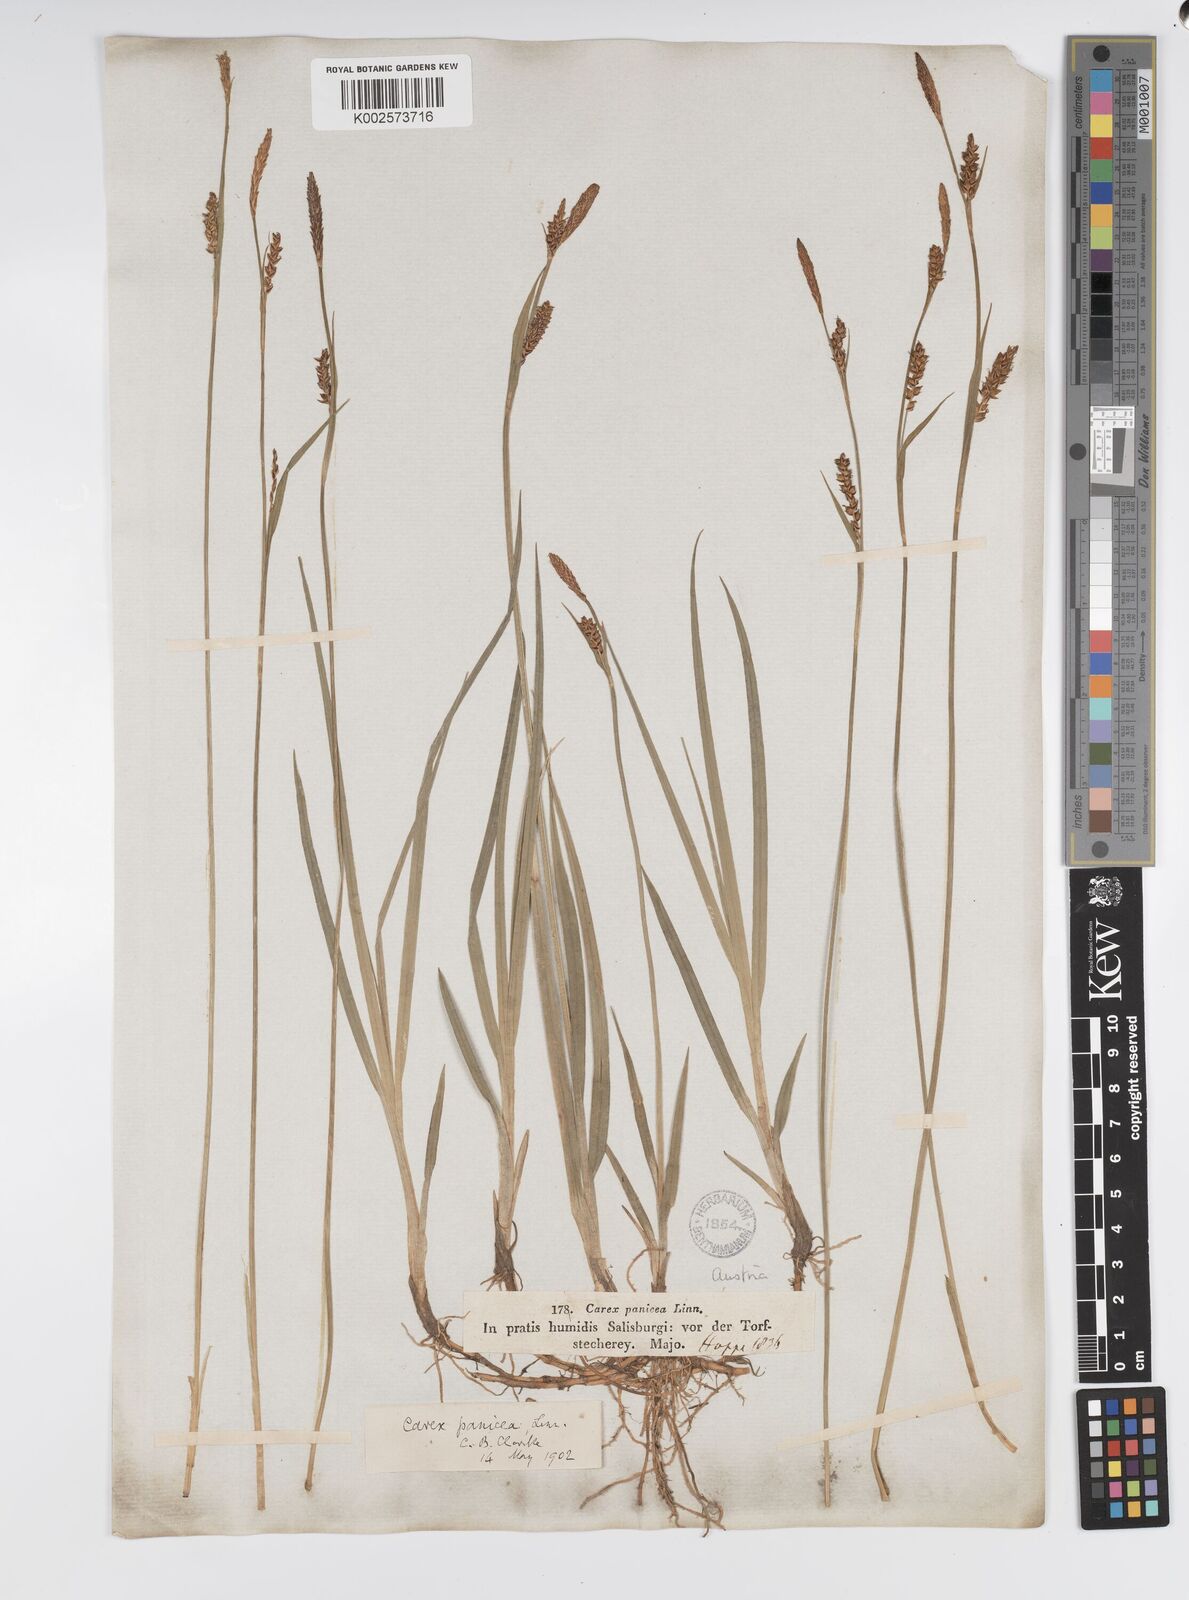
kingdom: Plantae
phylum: Tracheophyta
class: Liliopsida
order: Poales
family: Cyperaceae
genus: Carex
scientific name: Carex panicea
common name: Carnation sedge
